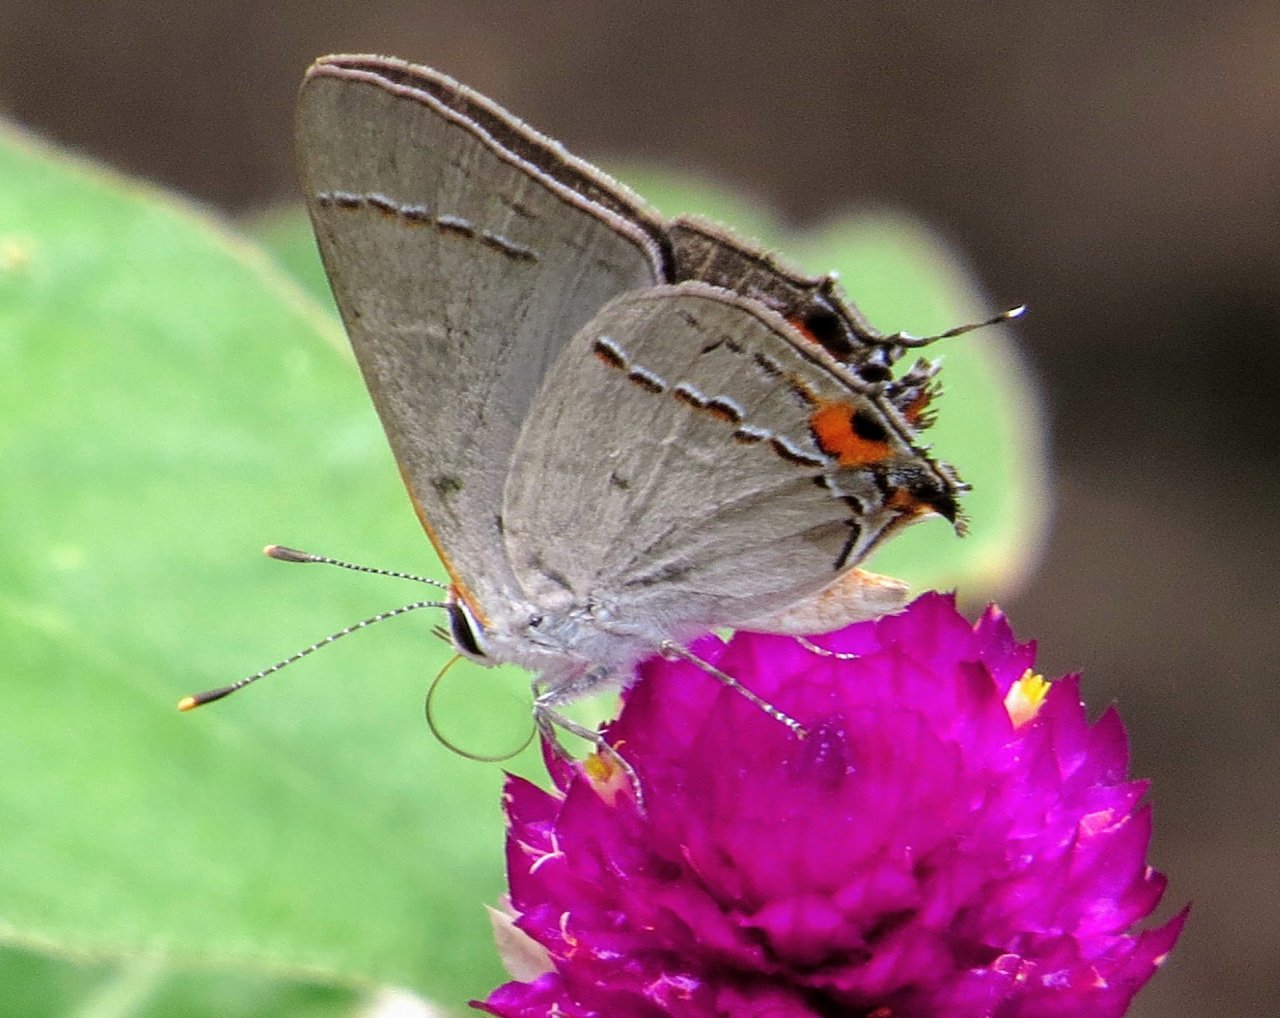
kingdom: Animalia
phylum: Arthropoda
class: Insecta
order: Lepidoptera
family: Lycaenidae
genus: Strymon
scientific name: Strymon melinus
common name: Gray Hairstreak
